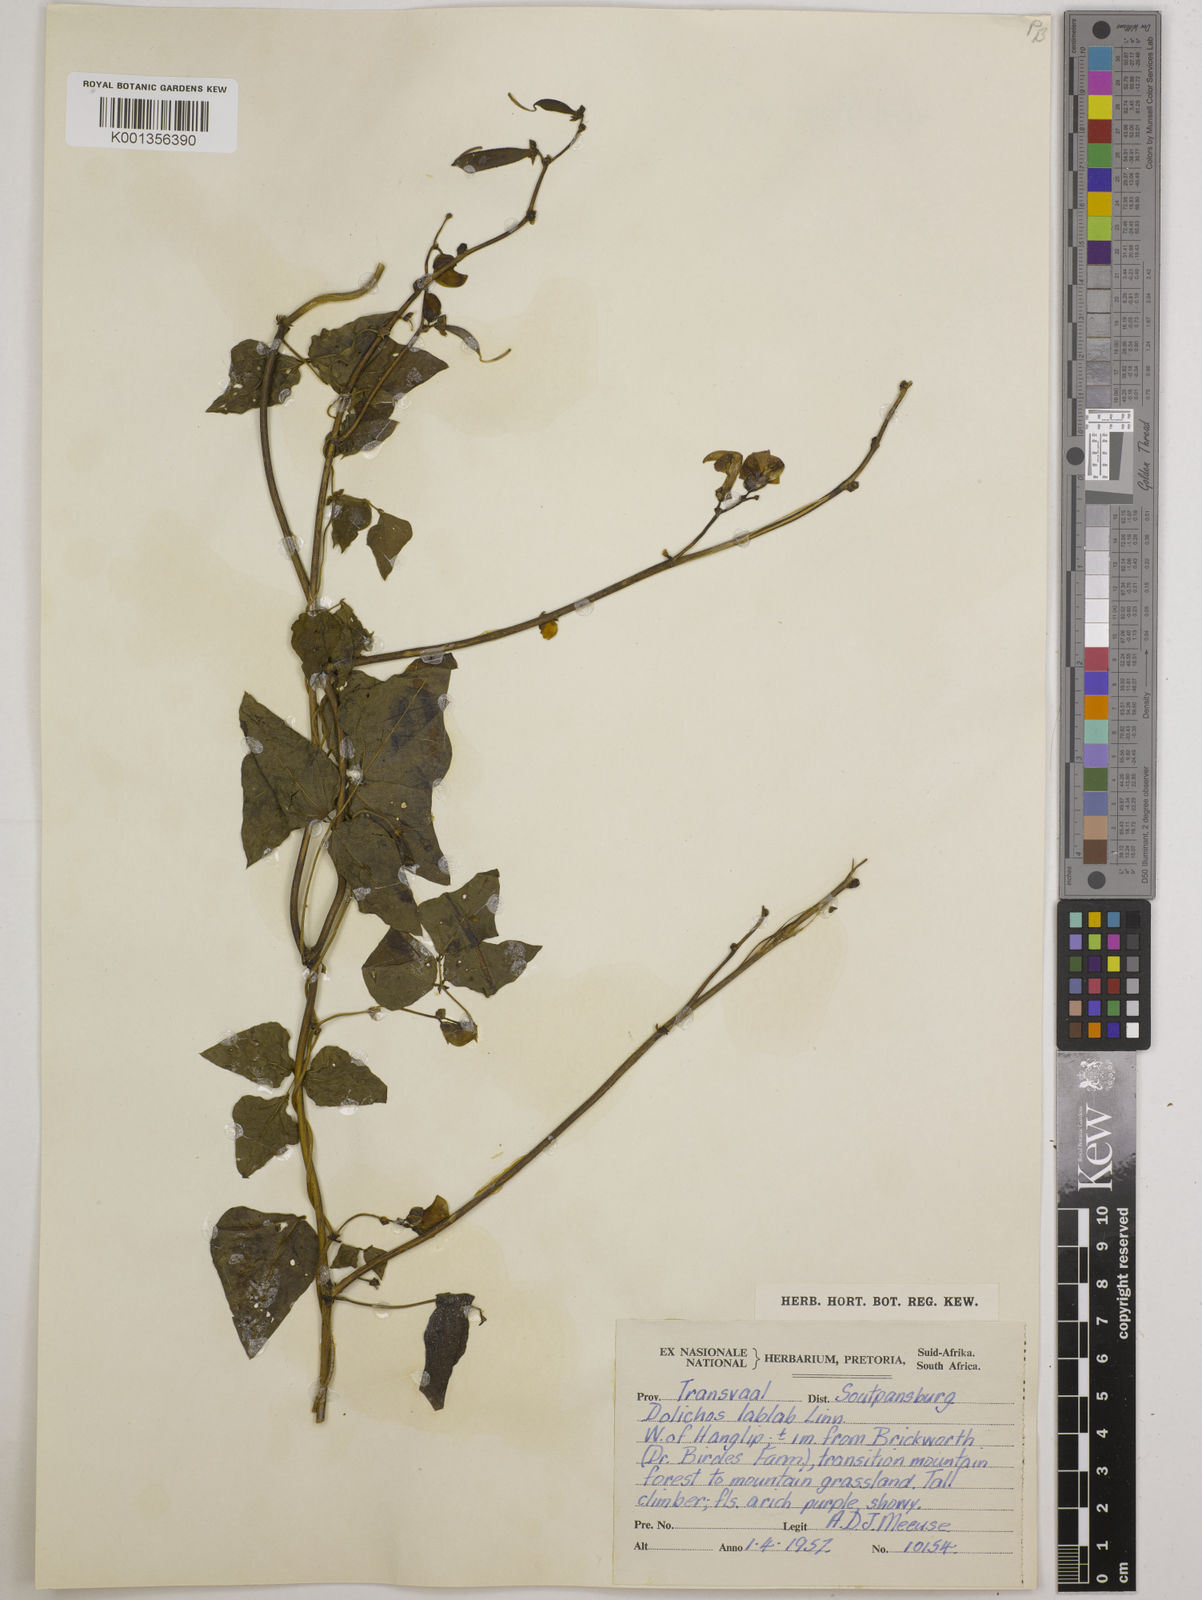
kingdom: Plantae
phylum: Tracheophyta
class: Magnoliopsida
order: Fabales
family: Fabaceae
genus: Lablab
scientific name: Lablab purpureus
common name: Lablab-bean
